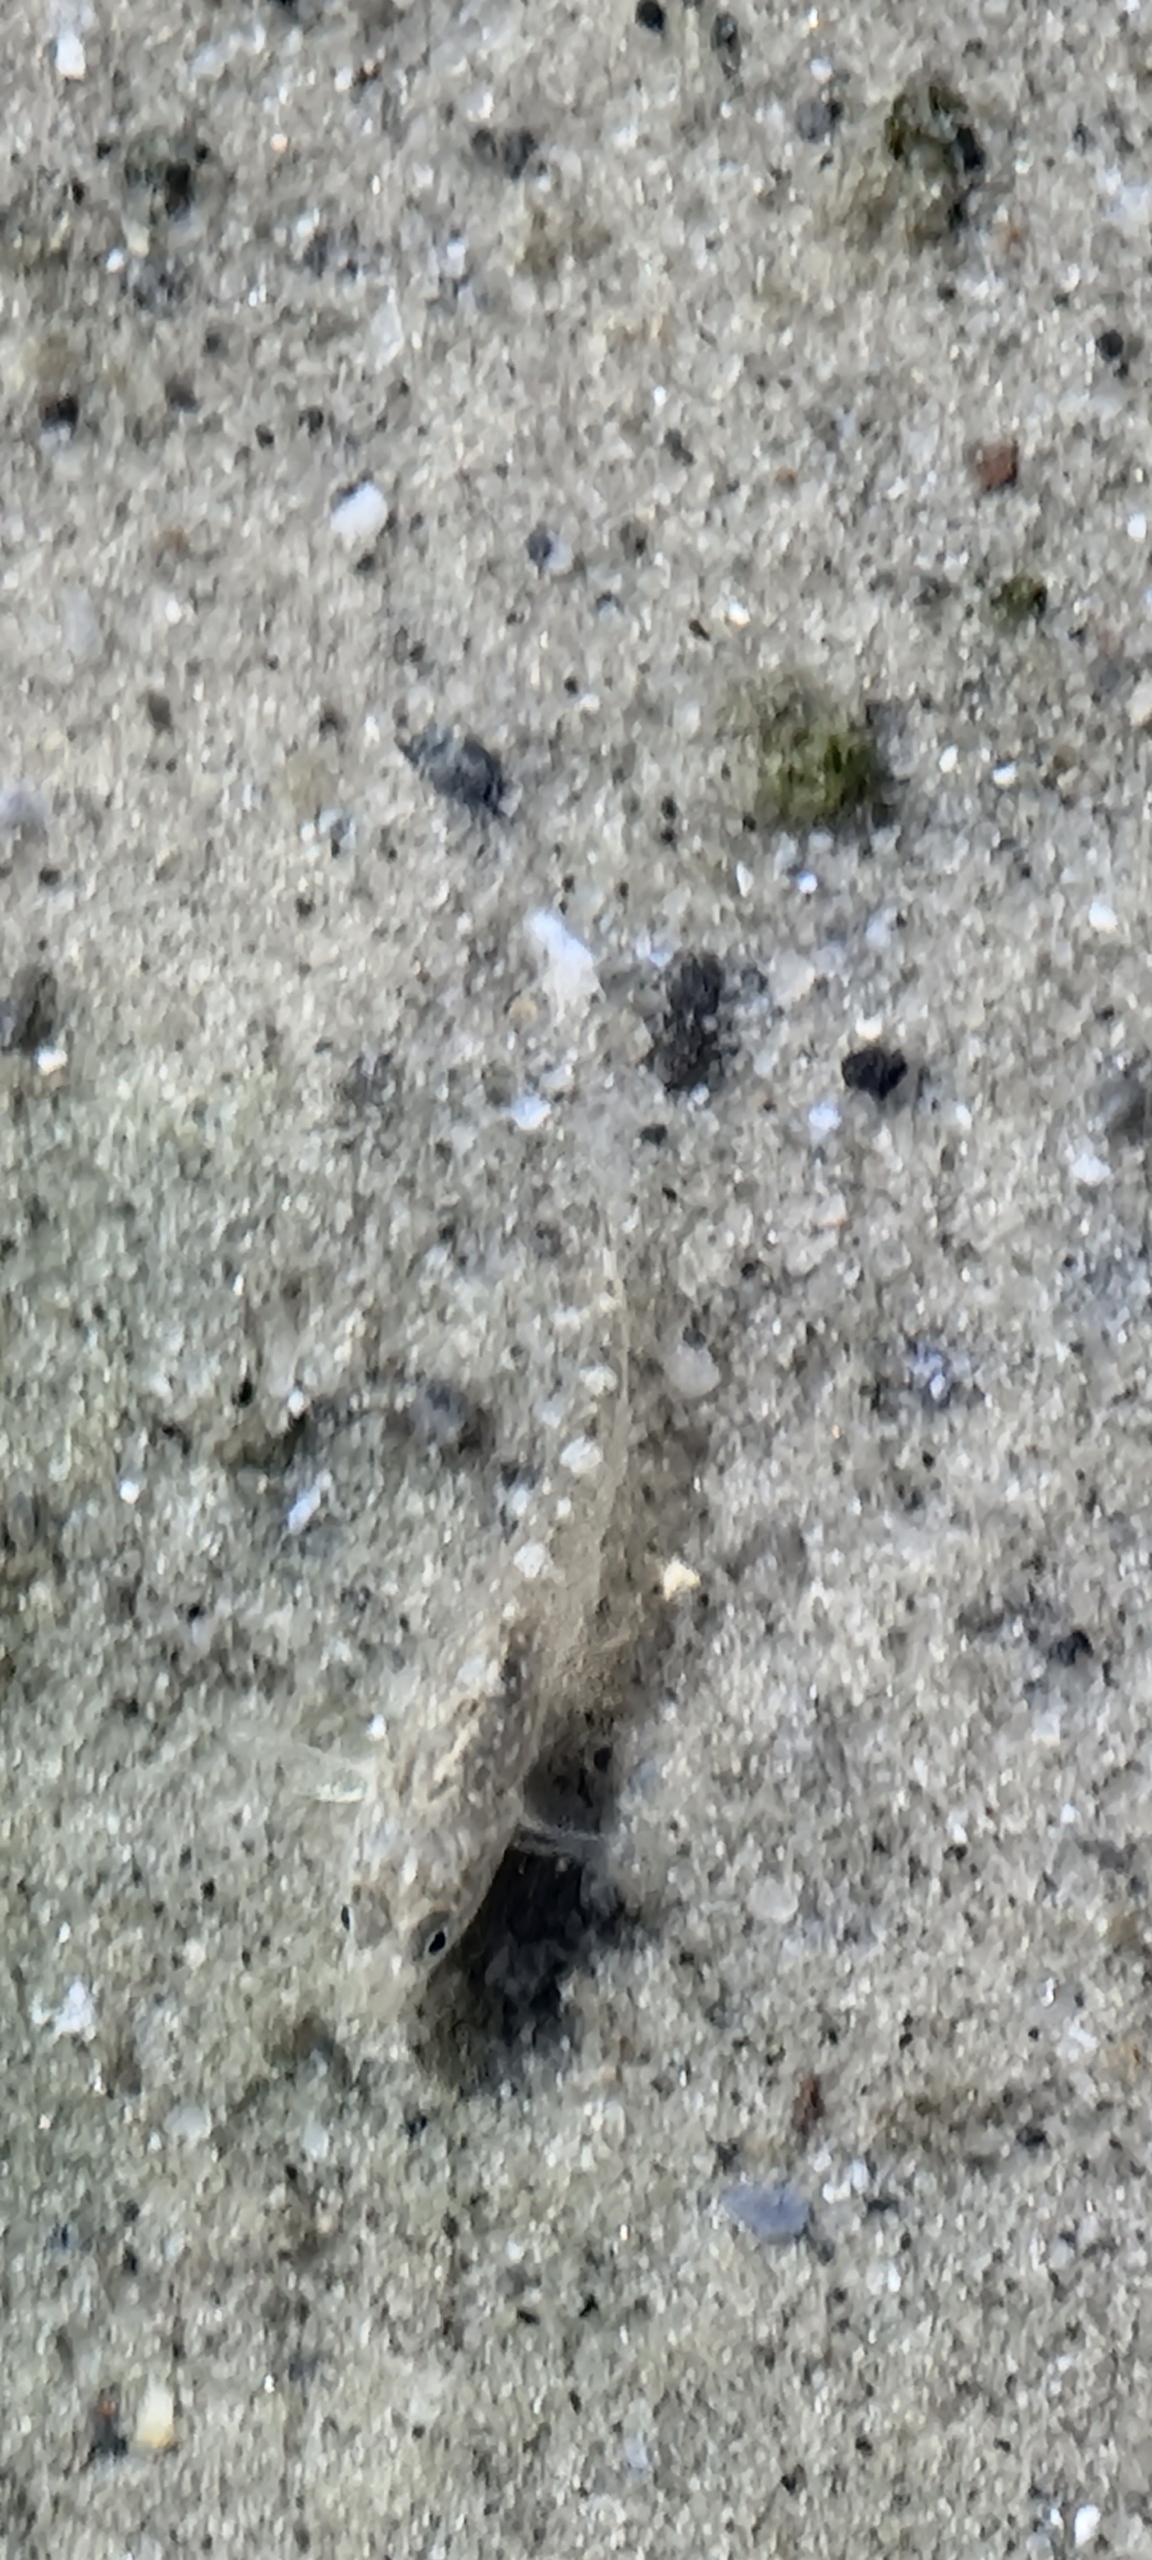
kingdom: Animalia
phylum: Chordata
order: Perciformes
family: Gobiidae
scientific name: Gobiidae
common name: Kutlingefamilien
